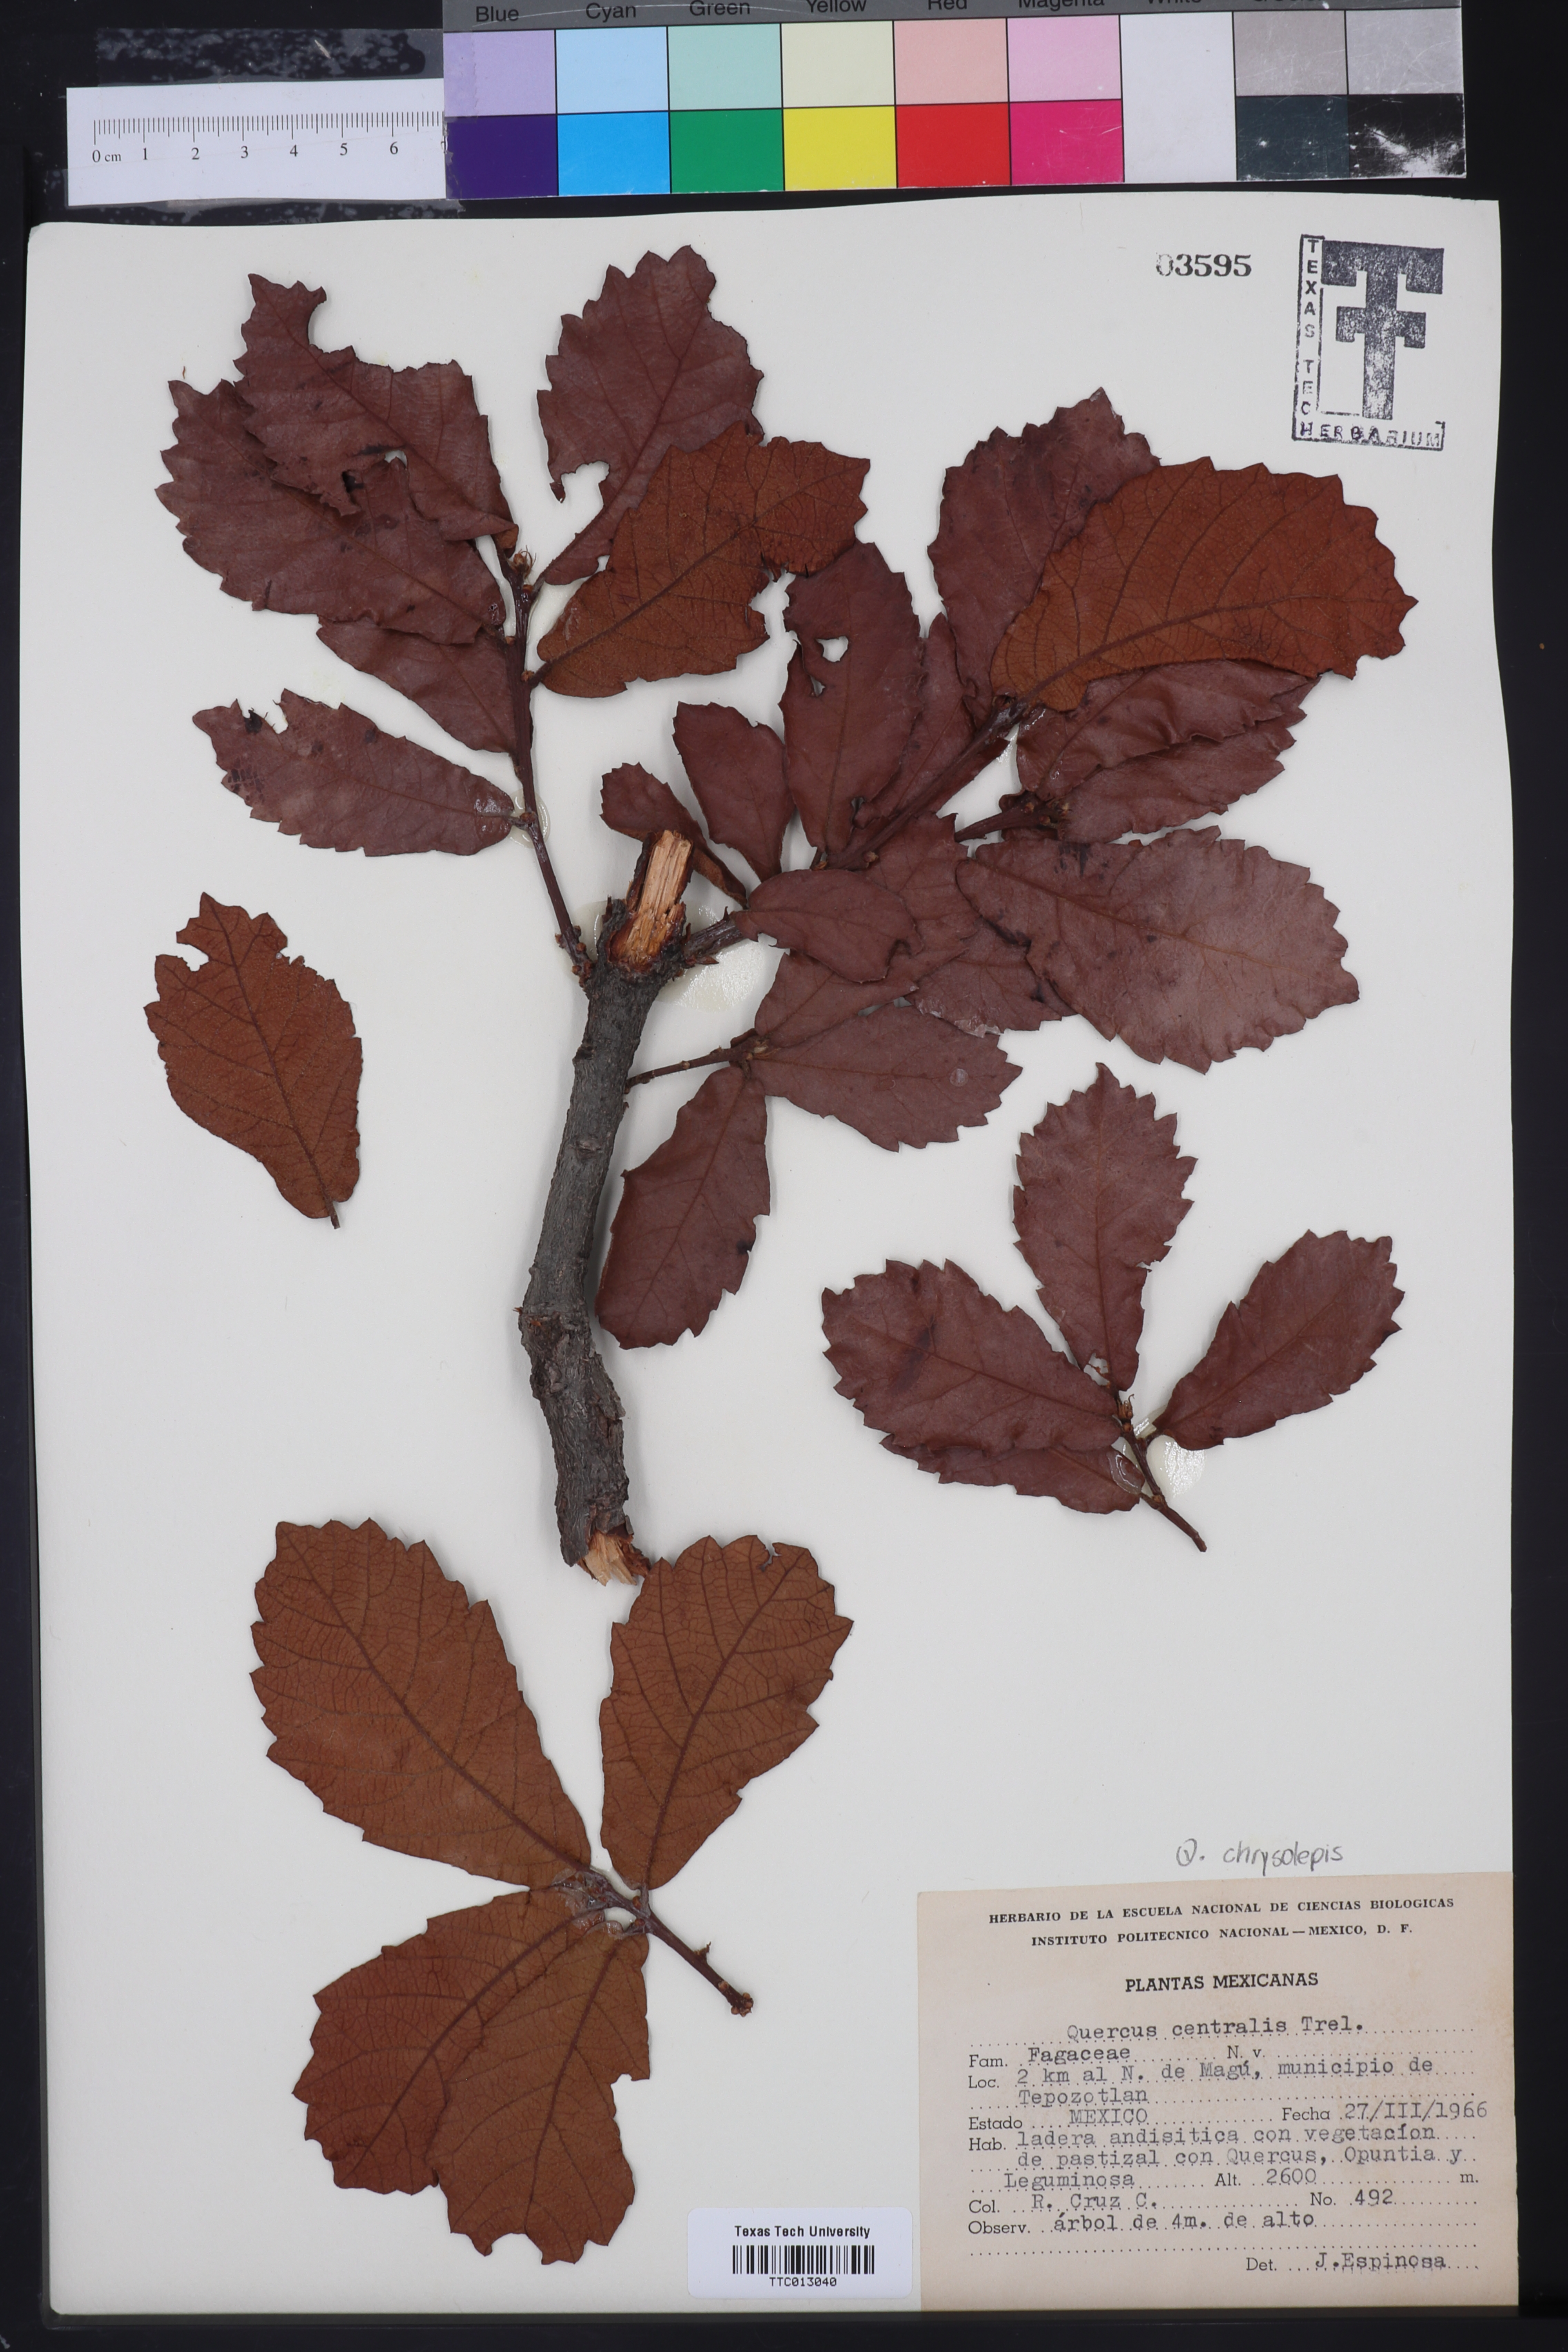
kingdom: Plantae
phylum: Tracheophyta
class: Magnoliopsida
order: Fagales
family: Fagaceae
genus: Quercus
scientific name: Quercus laeta
